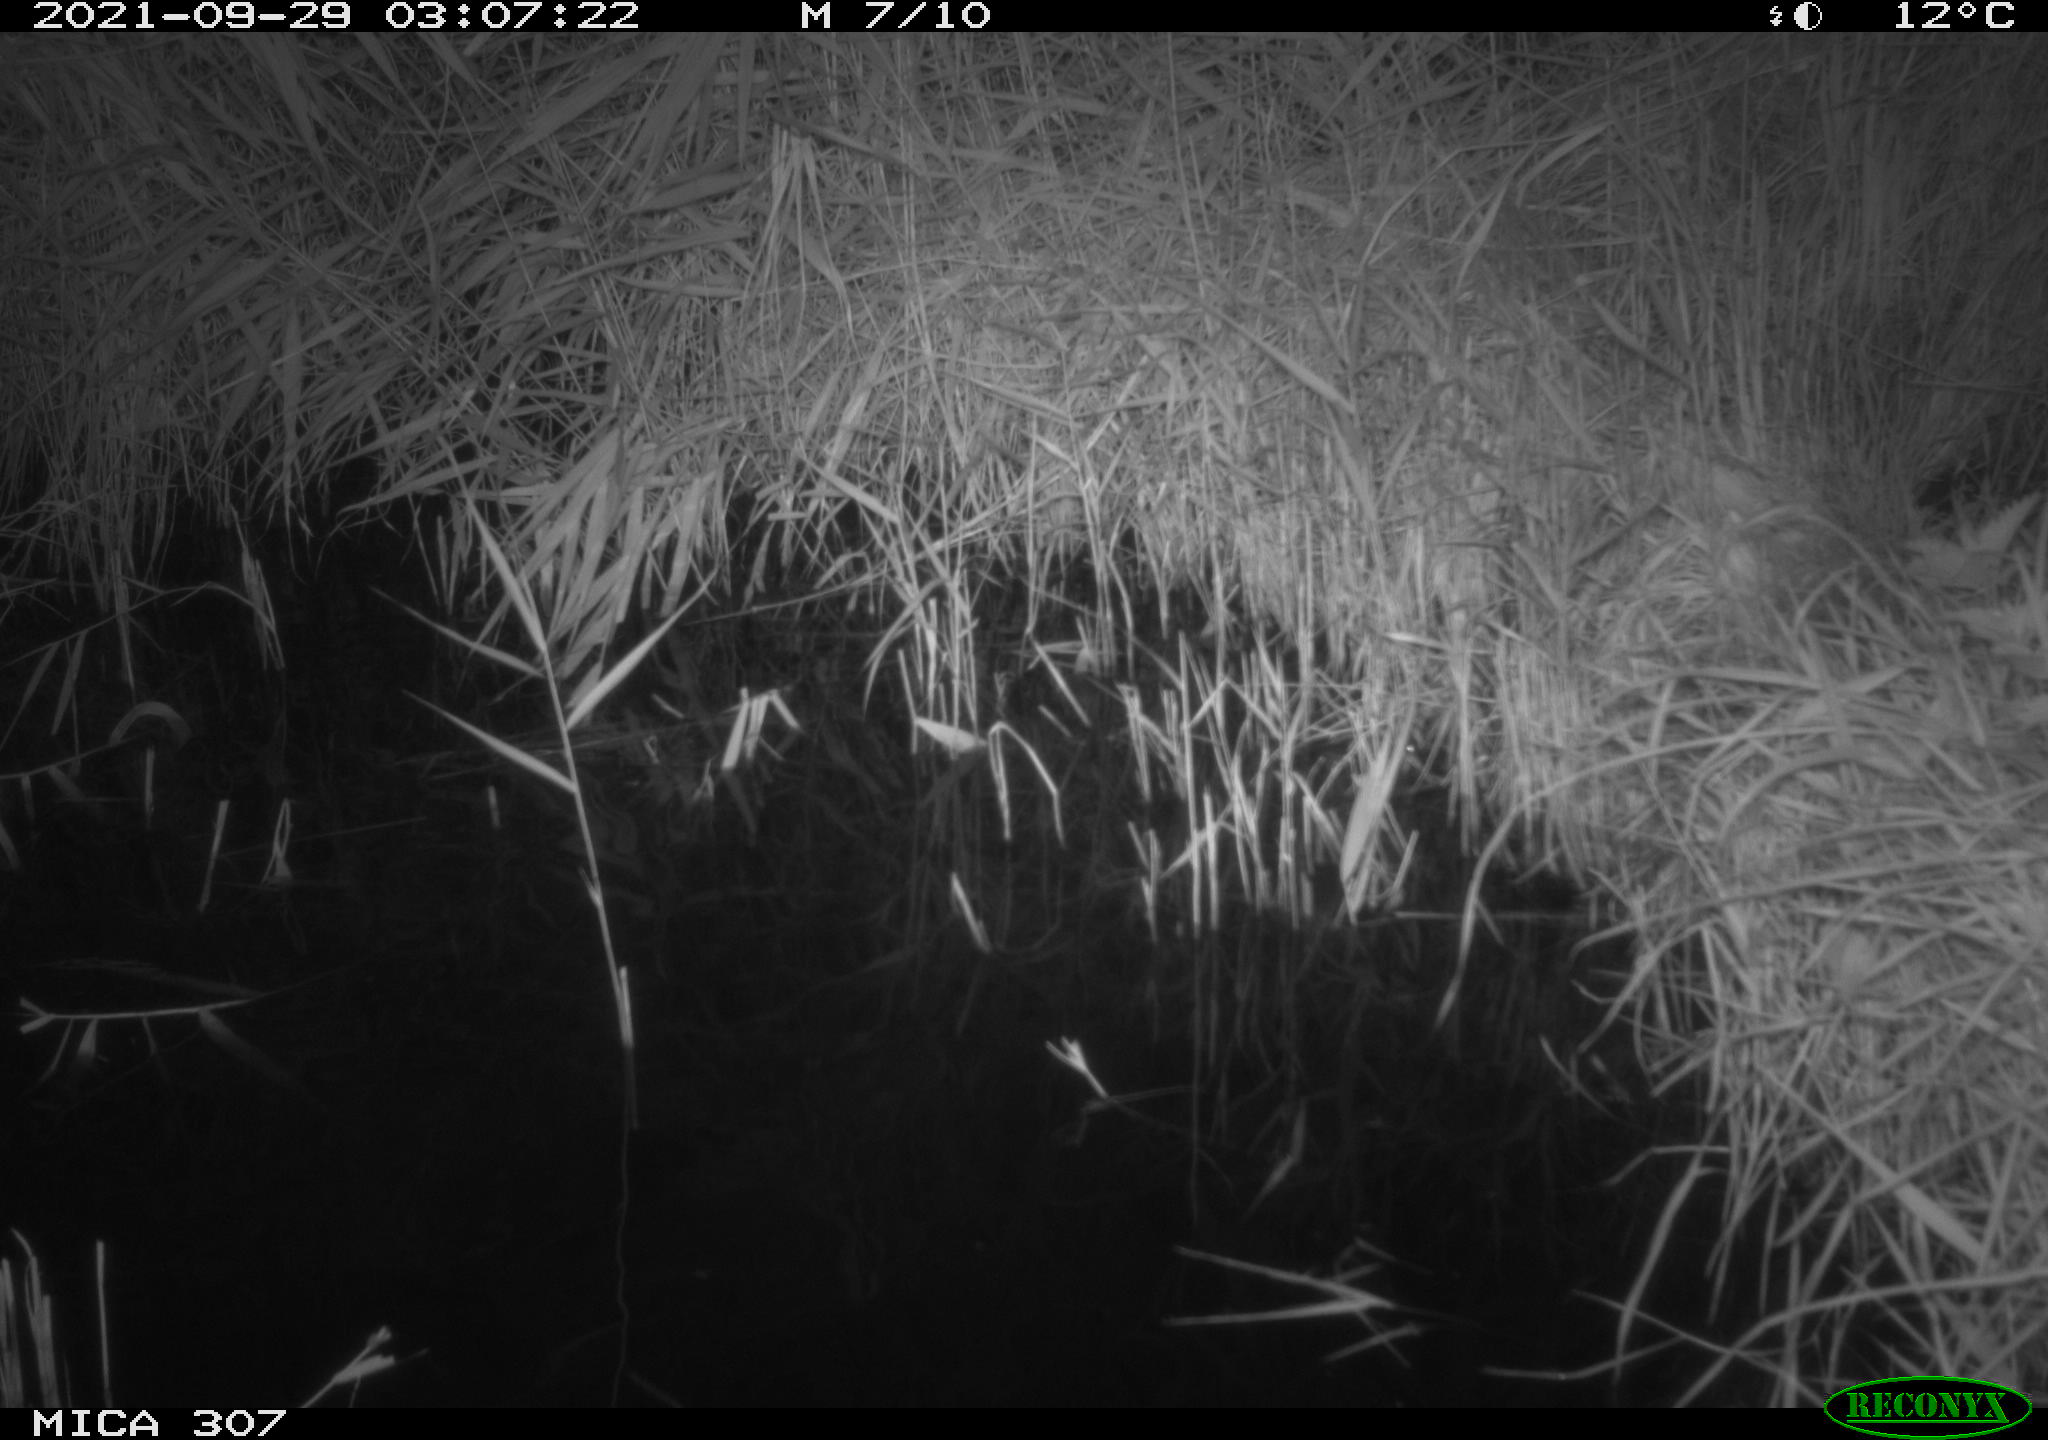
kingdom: Animalia
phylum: Chordata
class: Mammalia
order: Rodentia
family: Muridae
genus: Rattus
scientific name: Rattus norvegicus
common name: Brown rat
